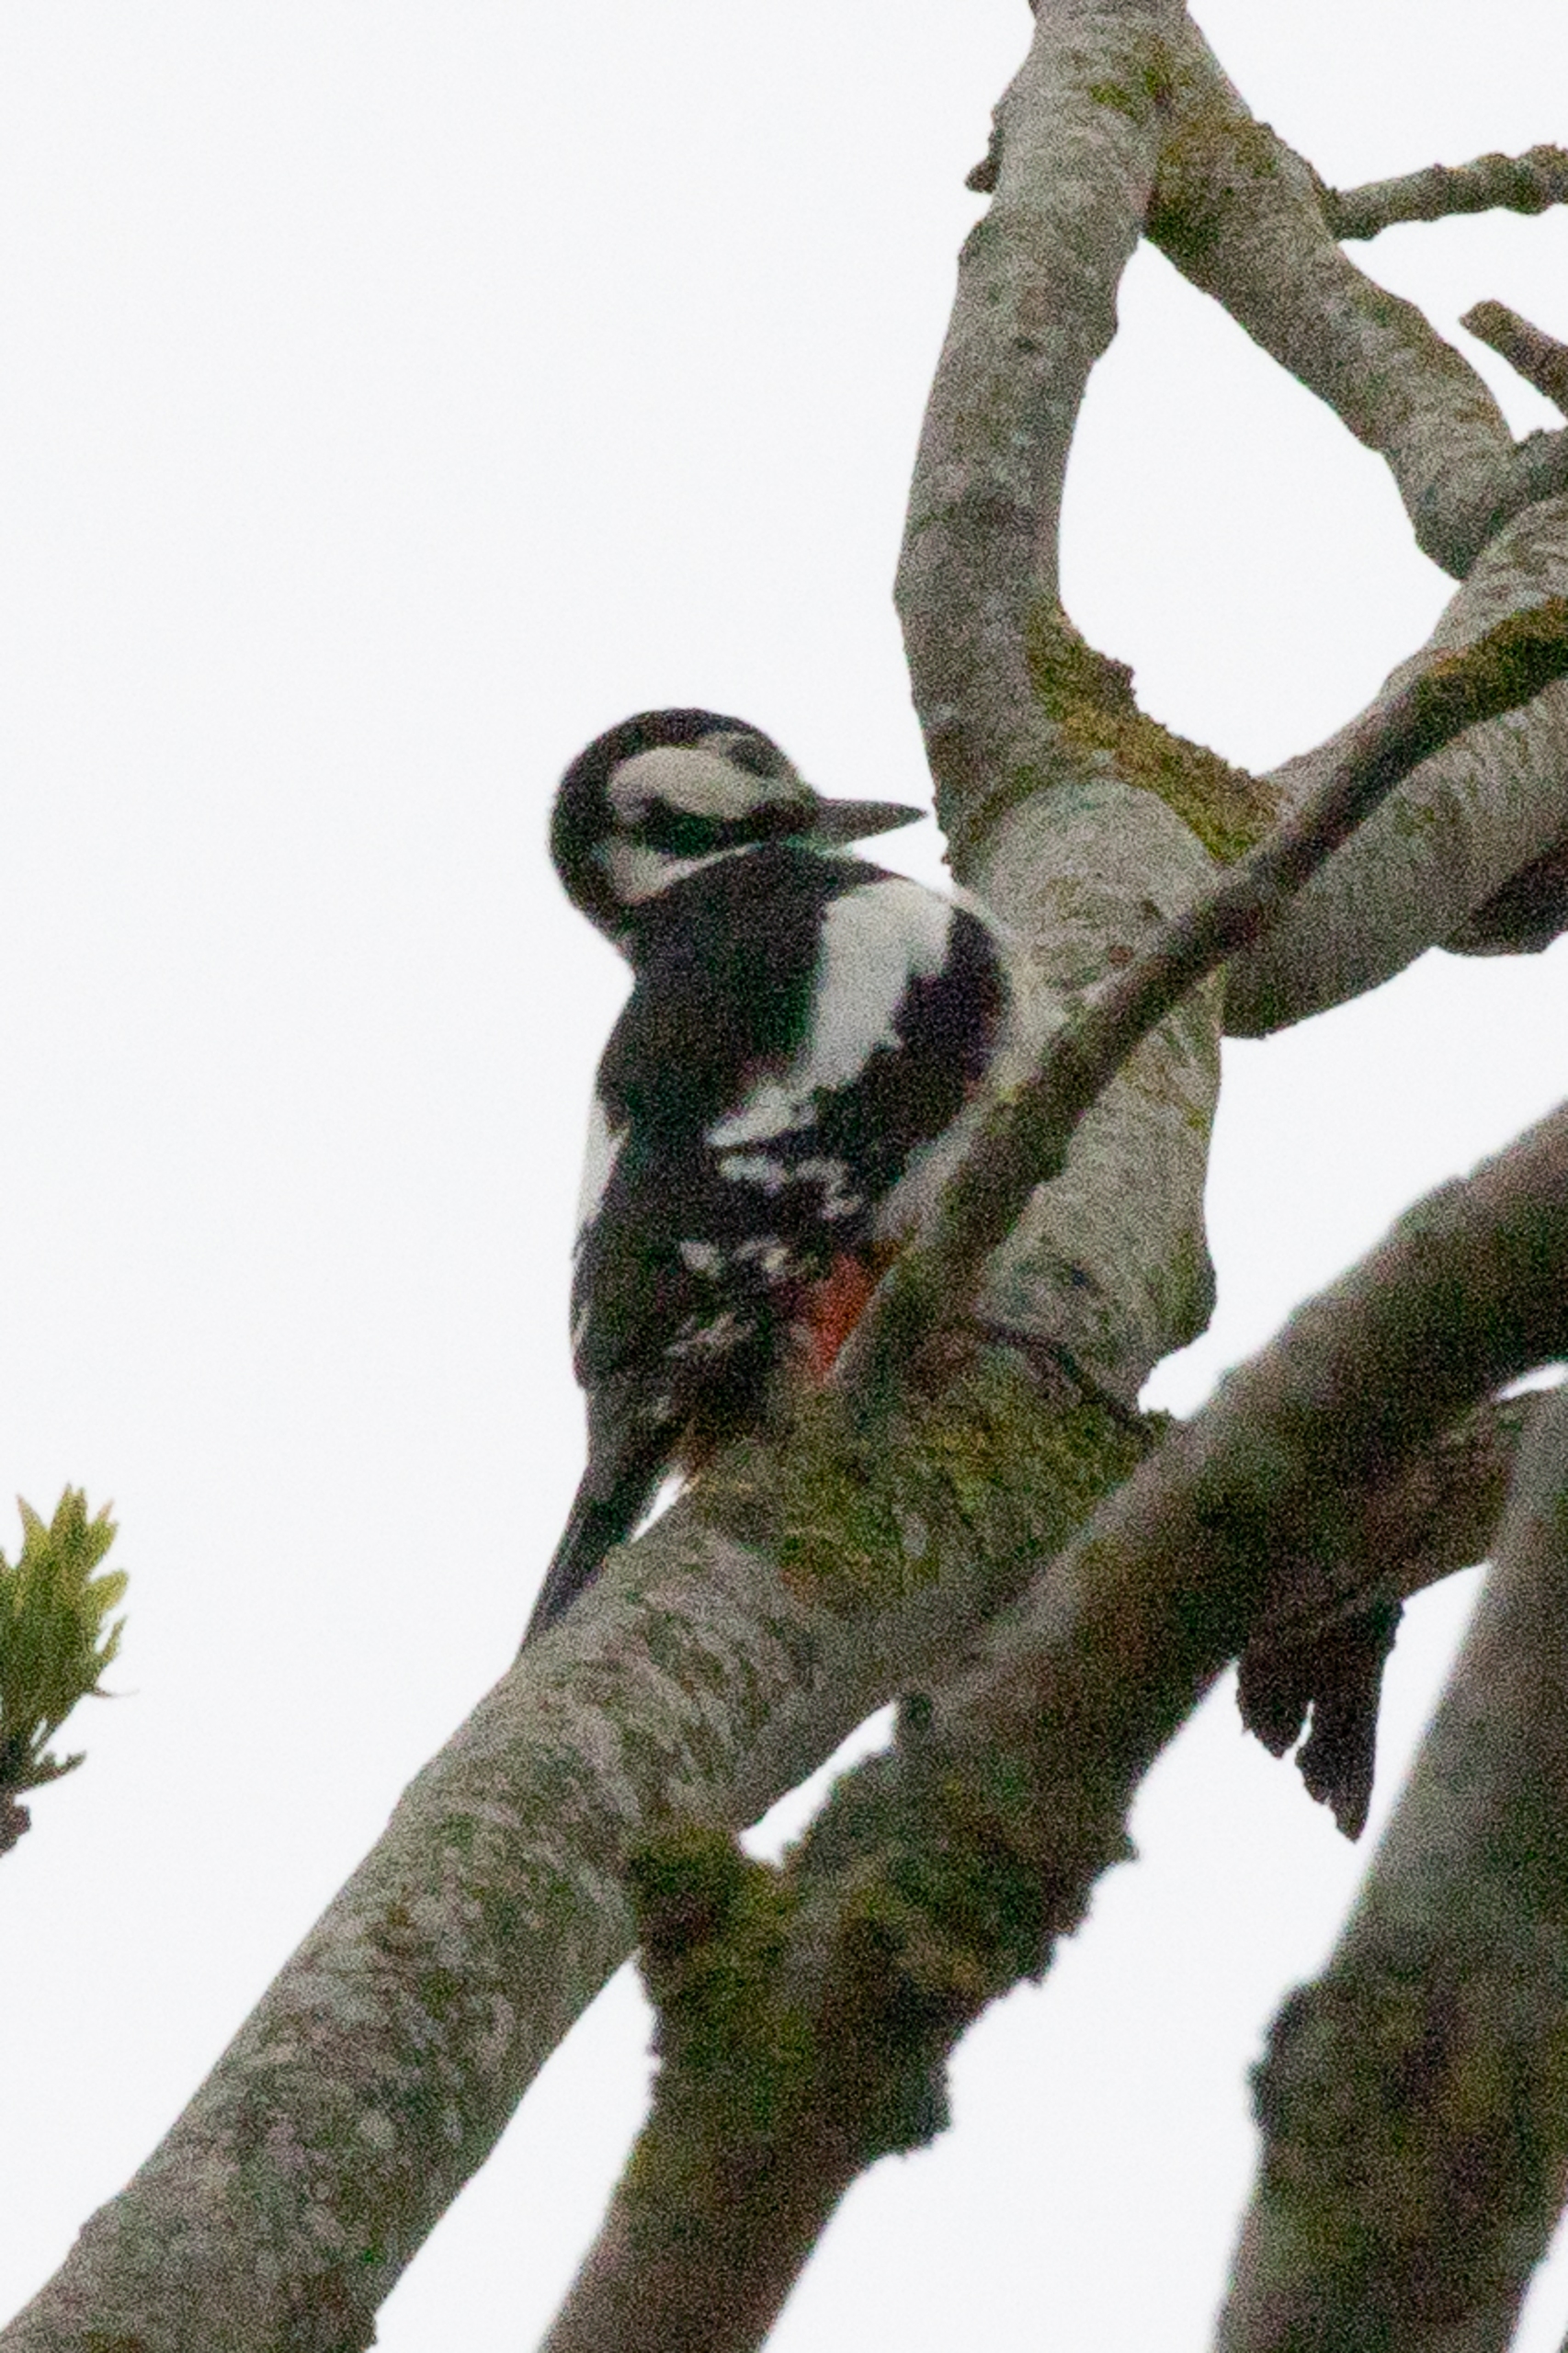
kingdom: Animalia
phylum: Chordata
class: Aves
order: Piciformes
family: Picidae
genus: Dendrocopos
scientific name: Dendrocopos major
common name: Stor flagspætte
